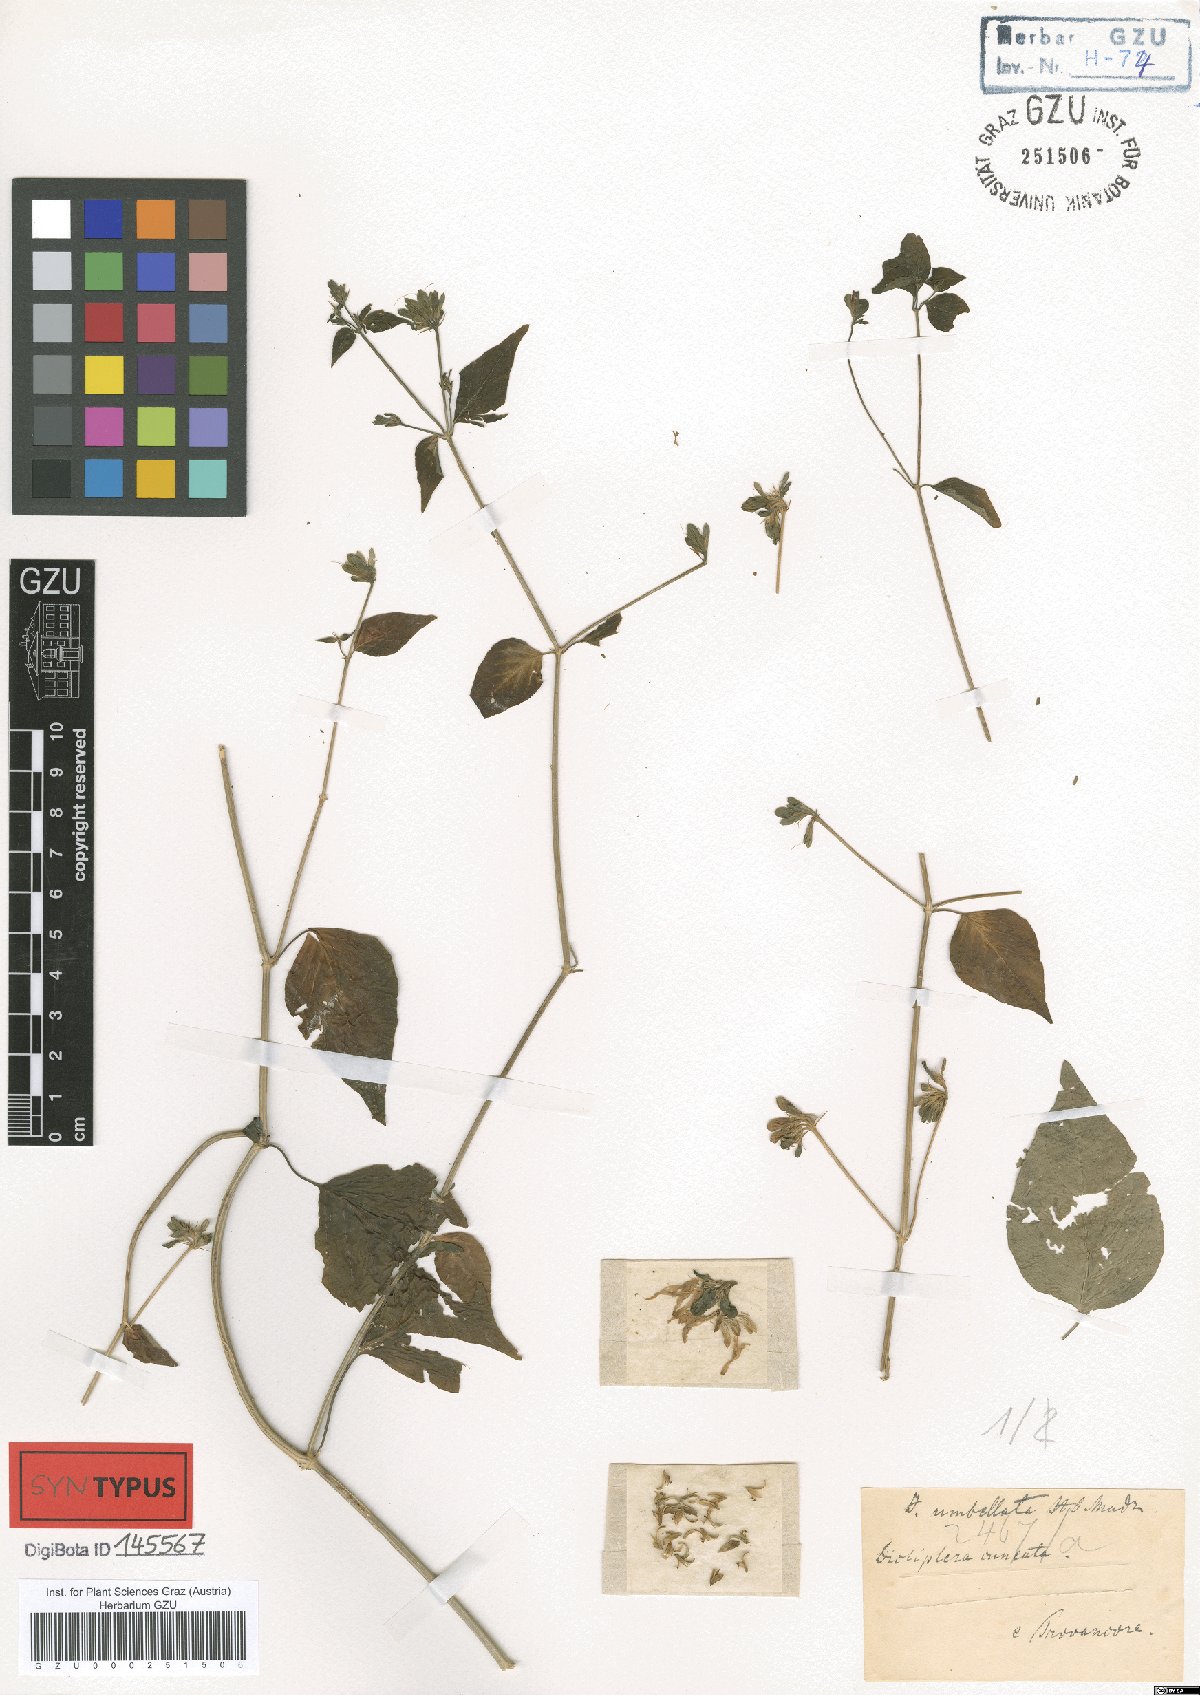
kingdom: Plantae
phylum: Tracheophyta
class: Magnoliopsida
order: Lamiales
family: Acanthaceae
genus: Dicliptera
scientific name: Dicliptera cuneata
